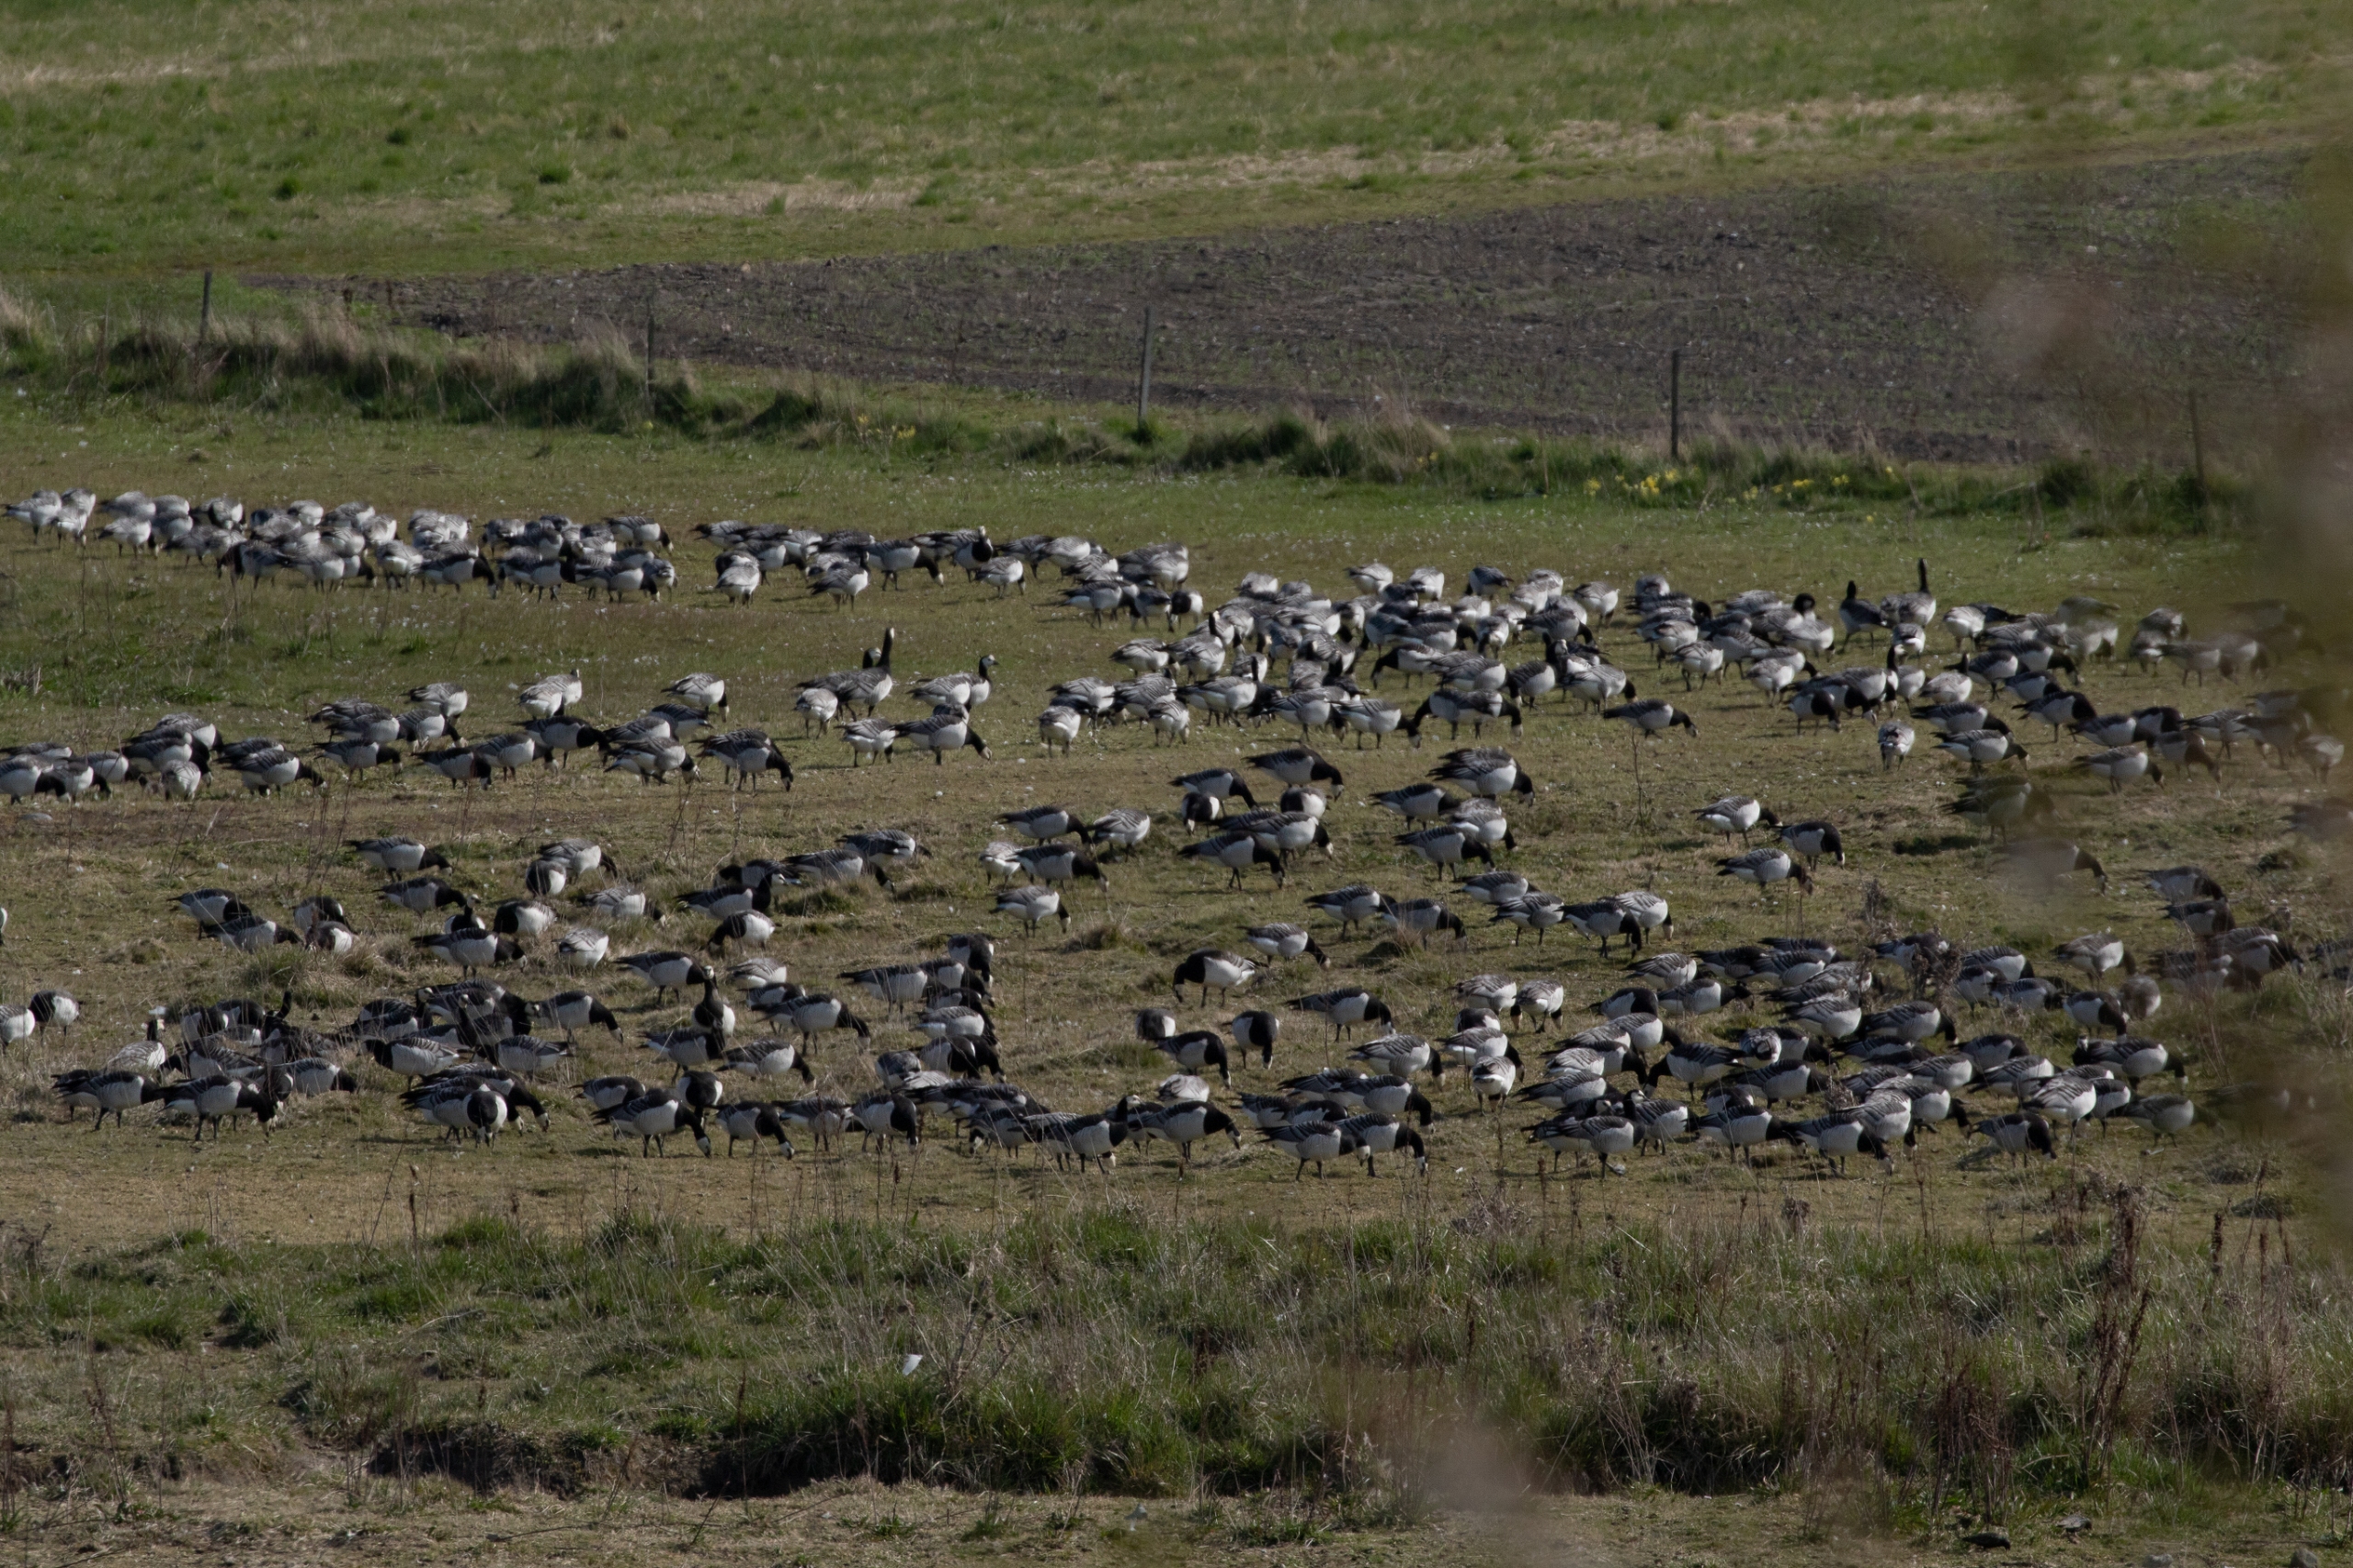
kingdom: Animalia
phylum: Chordata
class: Aves
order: Anseriformes
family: Anatidae
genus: Branta
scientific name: Branta leucopsis
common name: Bramgås
